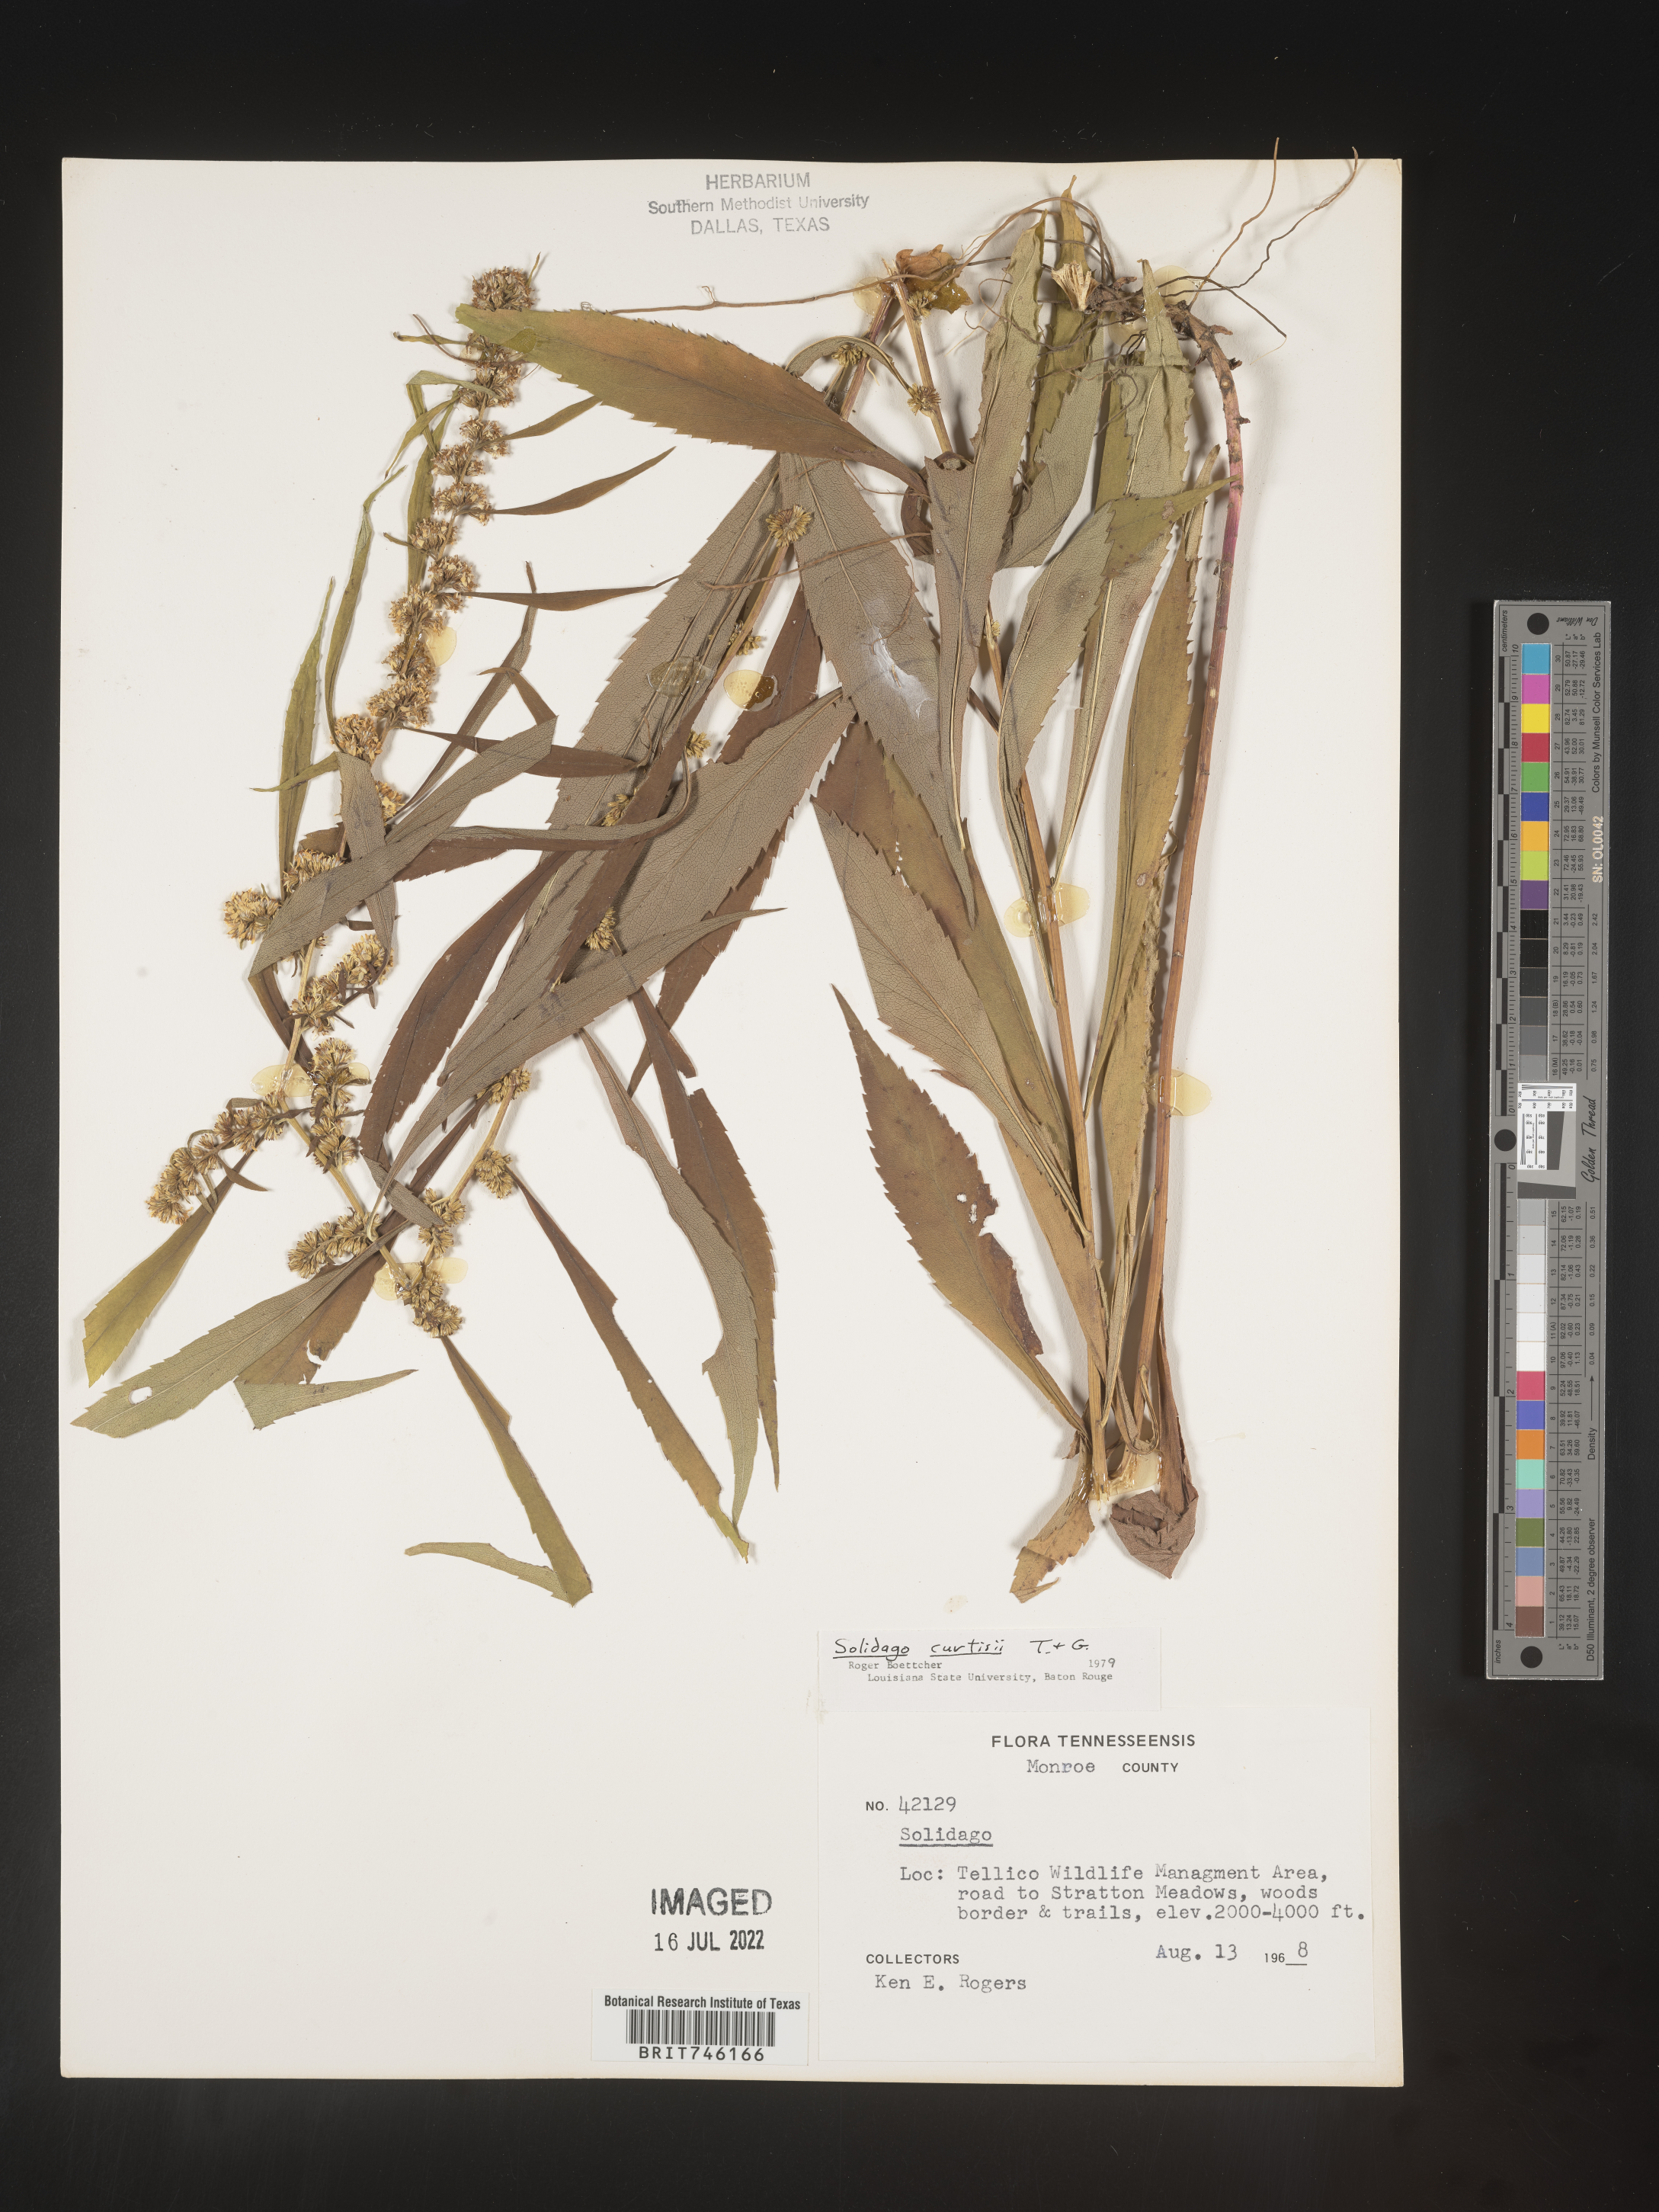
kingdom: Plantae
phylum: Tracheophyta
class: Magnoliopsida
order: Asterales
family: Asteraceae
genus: Solidago
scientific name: Solidago curtisii
